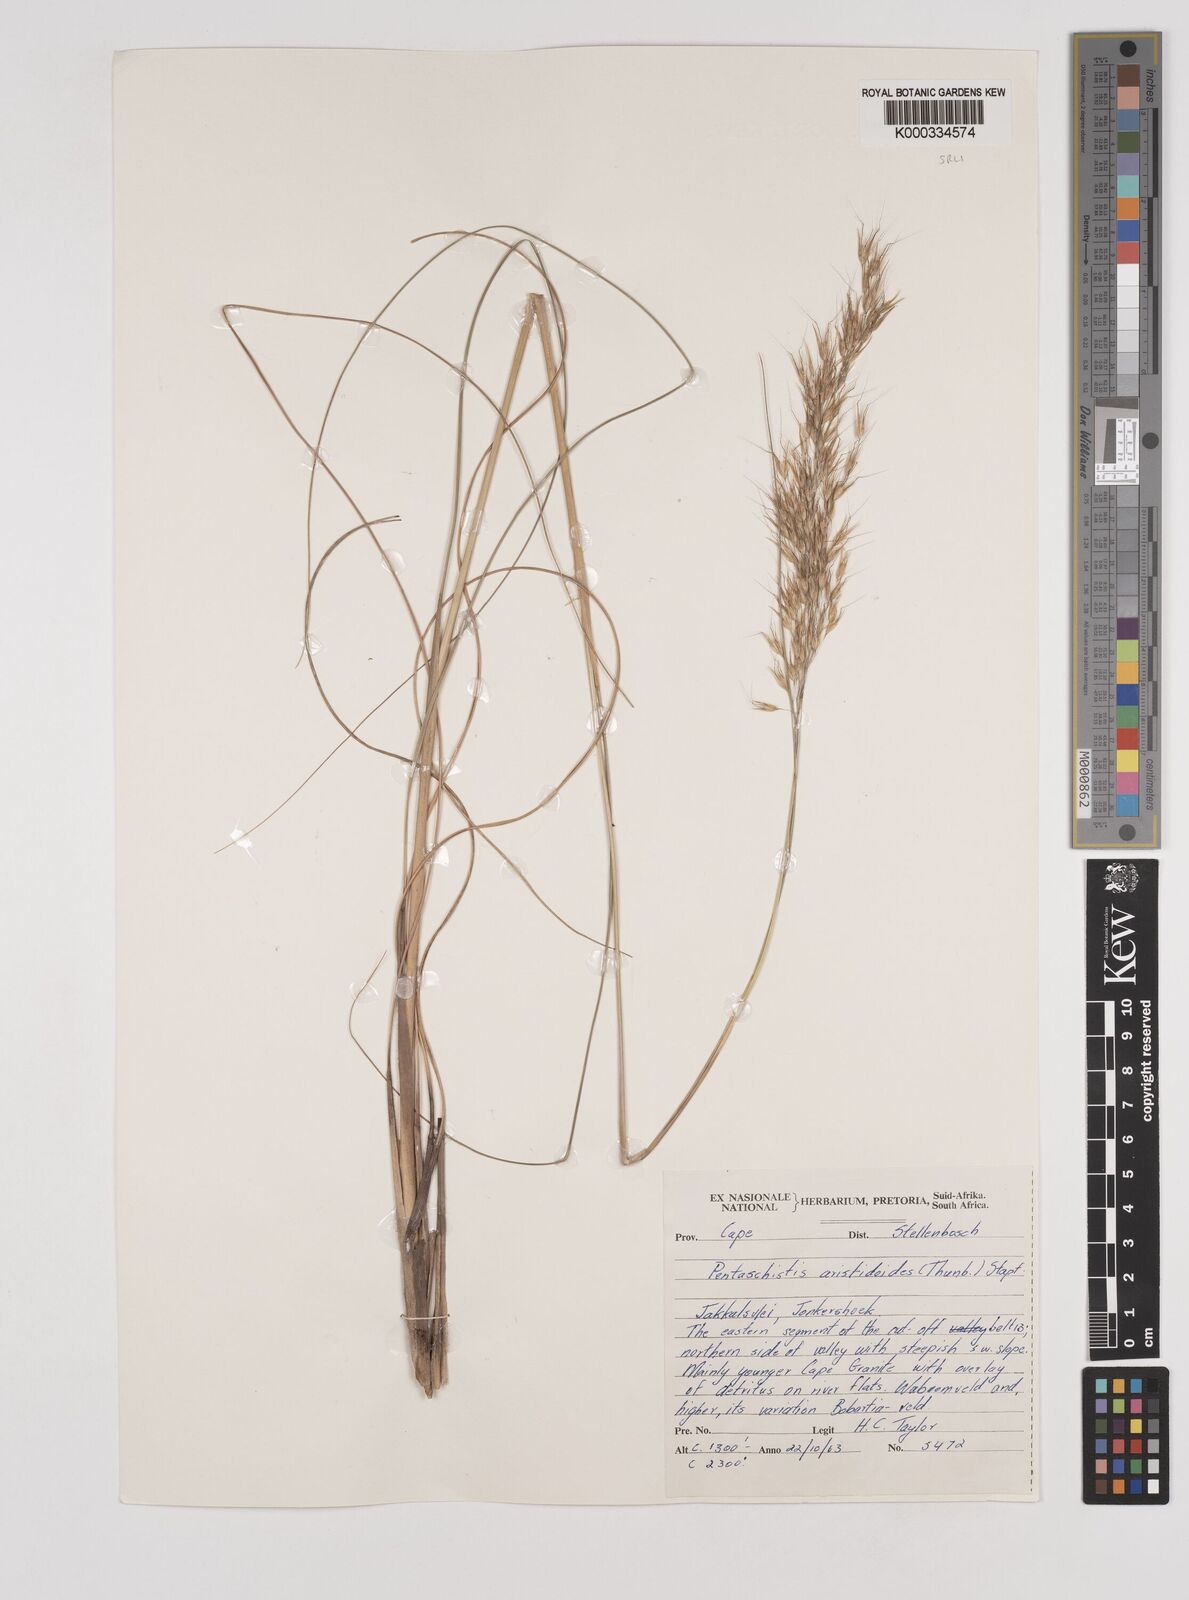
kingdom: Plantae
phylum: Tracheophyta
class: Liliopsida
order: Poales
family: Poaceae
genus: Pentameris
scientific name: Pentameris aristidoides
